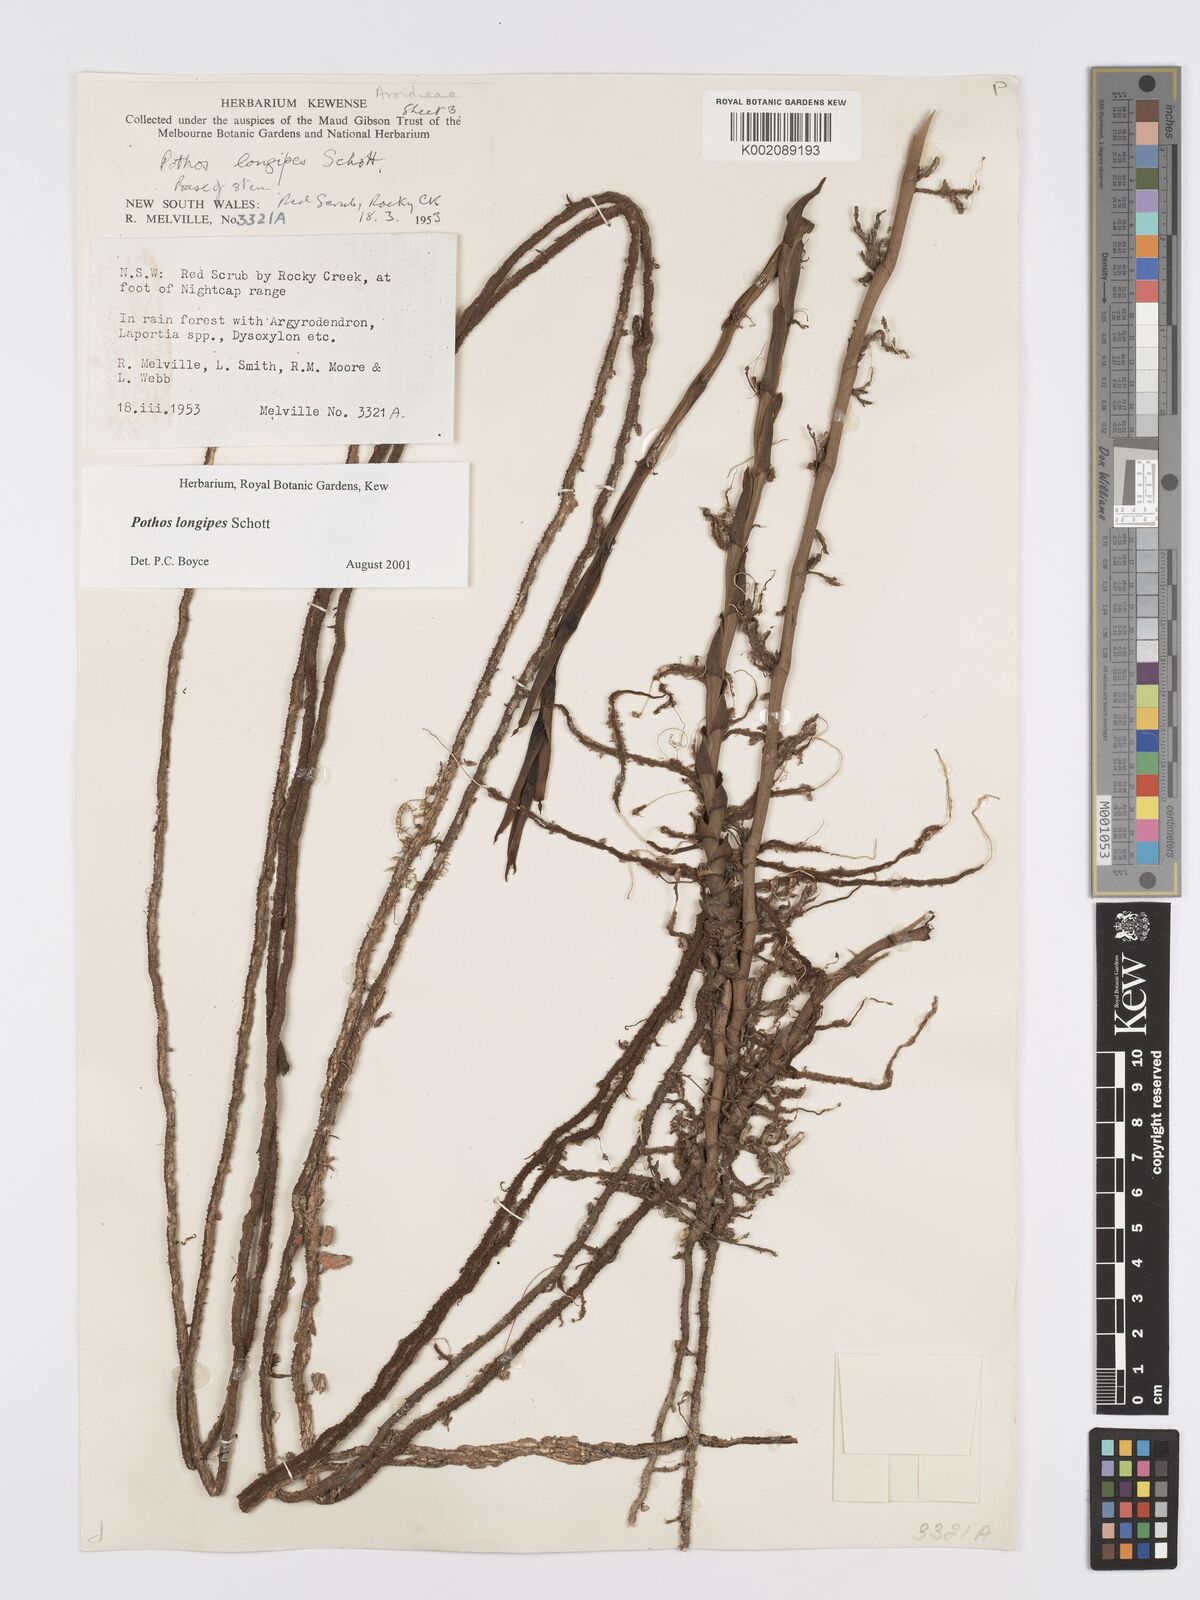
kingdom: Plantae
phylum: Tracheophyta
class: Liliopsida
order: Alismatales
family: Araceae
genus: Pothos
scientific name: Pothos longipes
